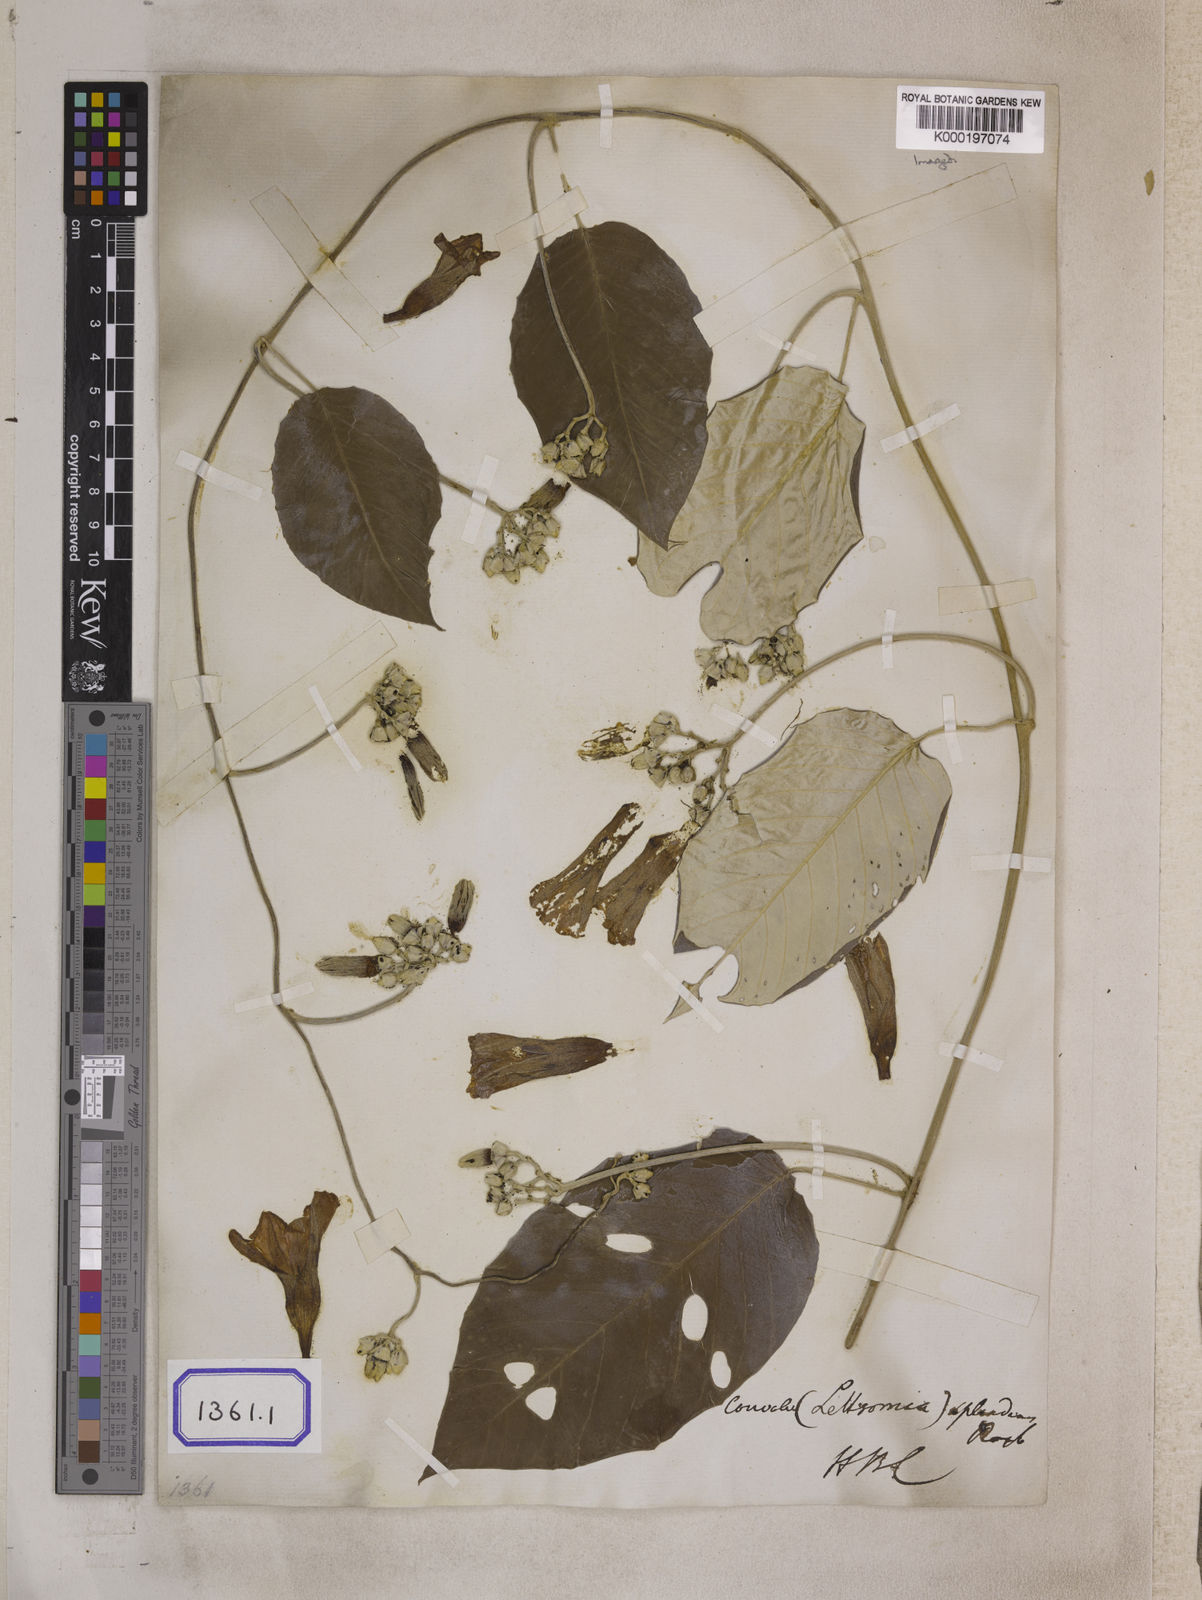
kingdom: Plantae
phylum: Tracheophyta
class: Magnoliopsida
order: Solanales
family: Convolvulaceae
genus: Argyreia
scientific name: Argyreia splendens
